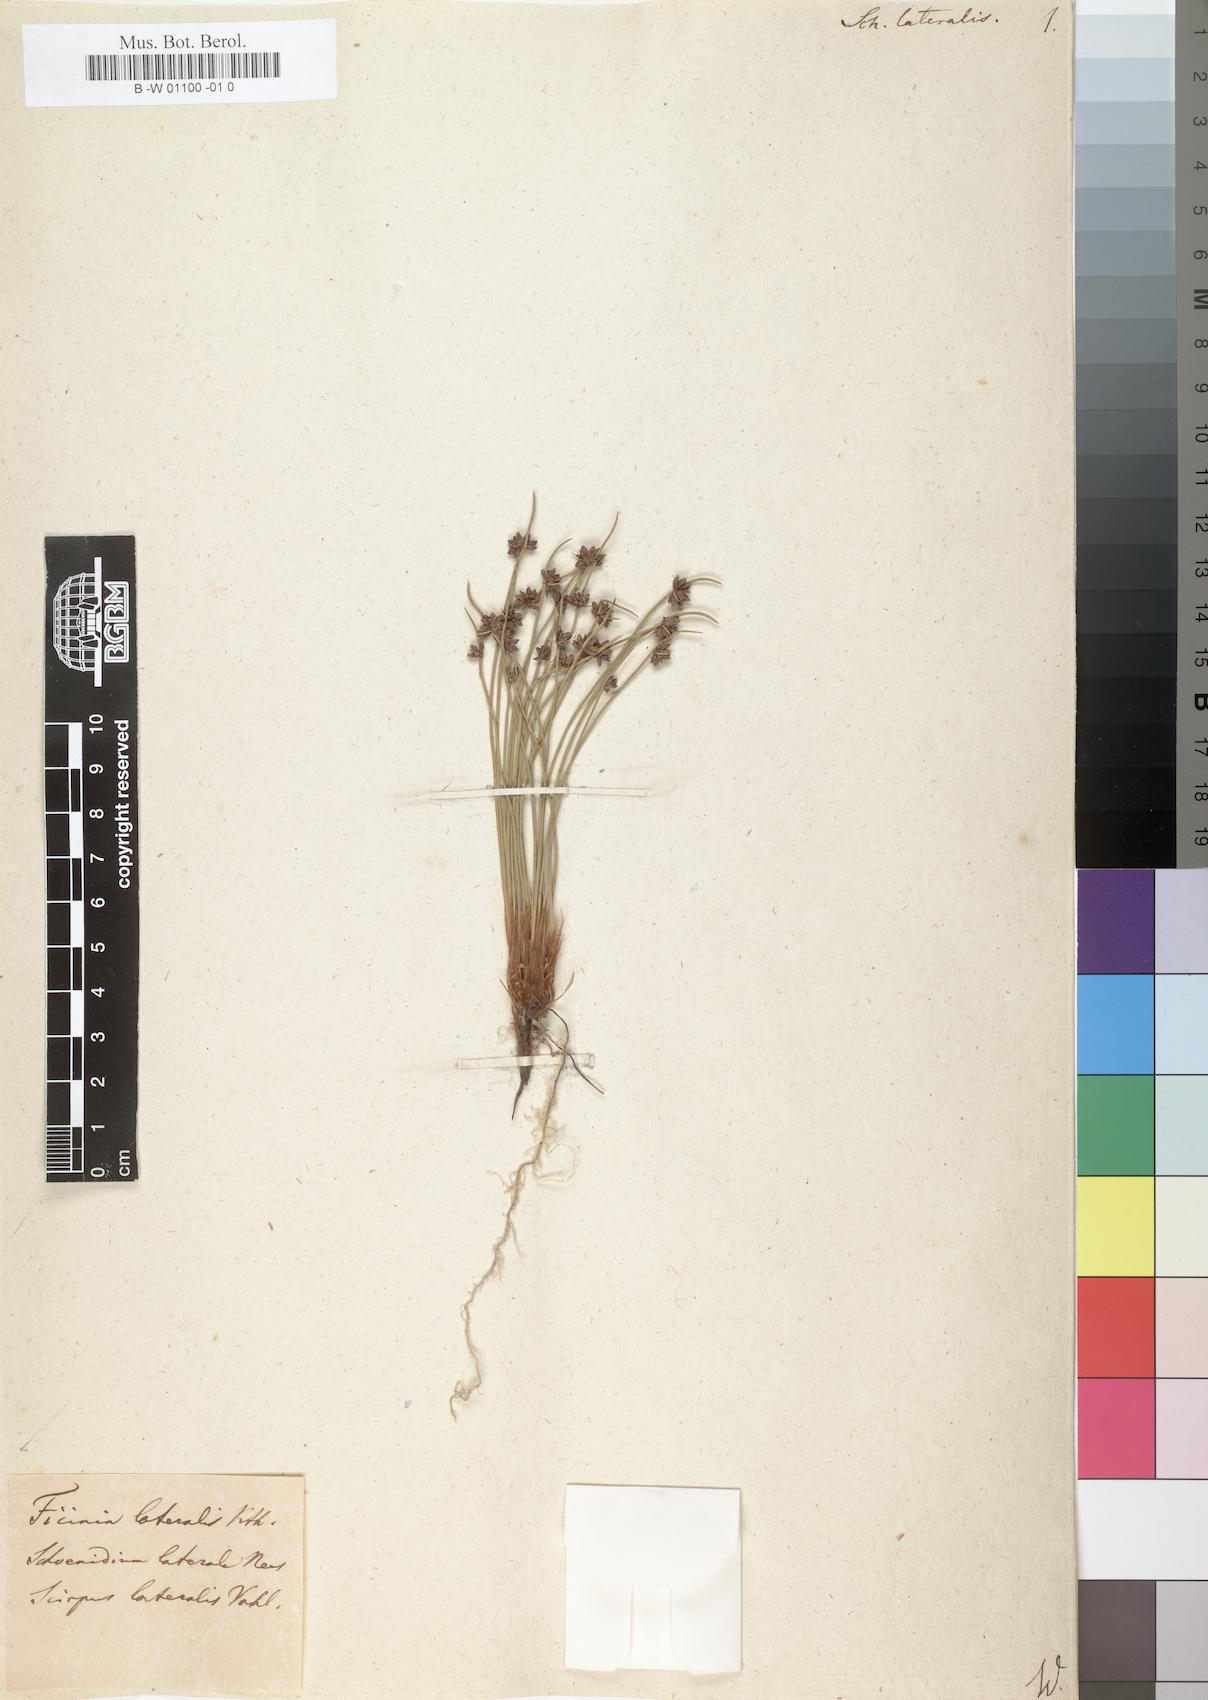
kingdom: Plantae
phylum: Tracheophyta
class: Liliopsida
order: Poales
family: Cyperaceae
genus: Ficinia
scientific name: Ficinia lateralis
